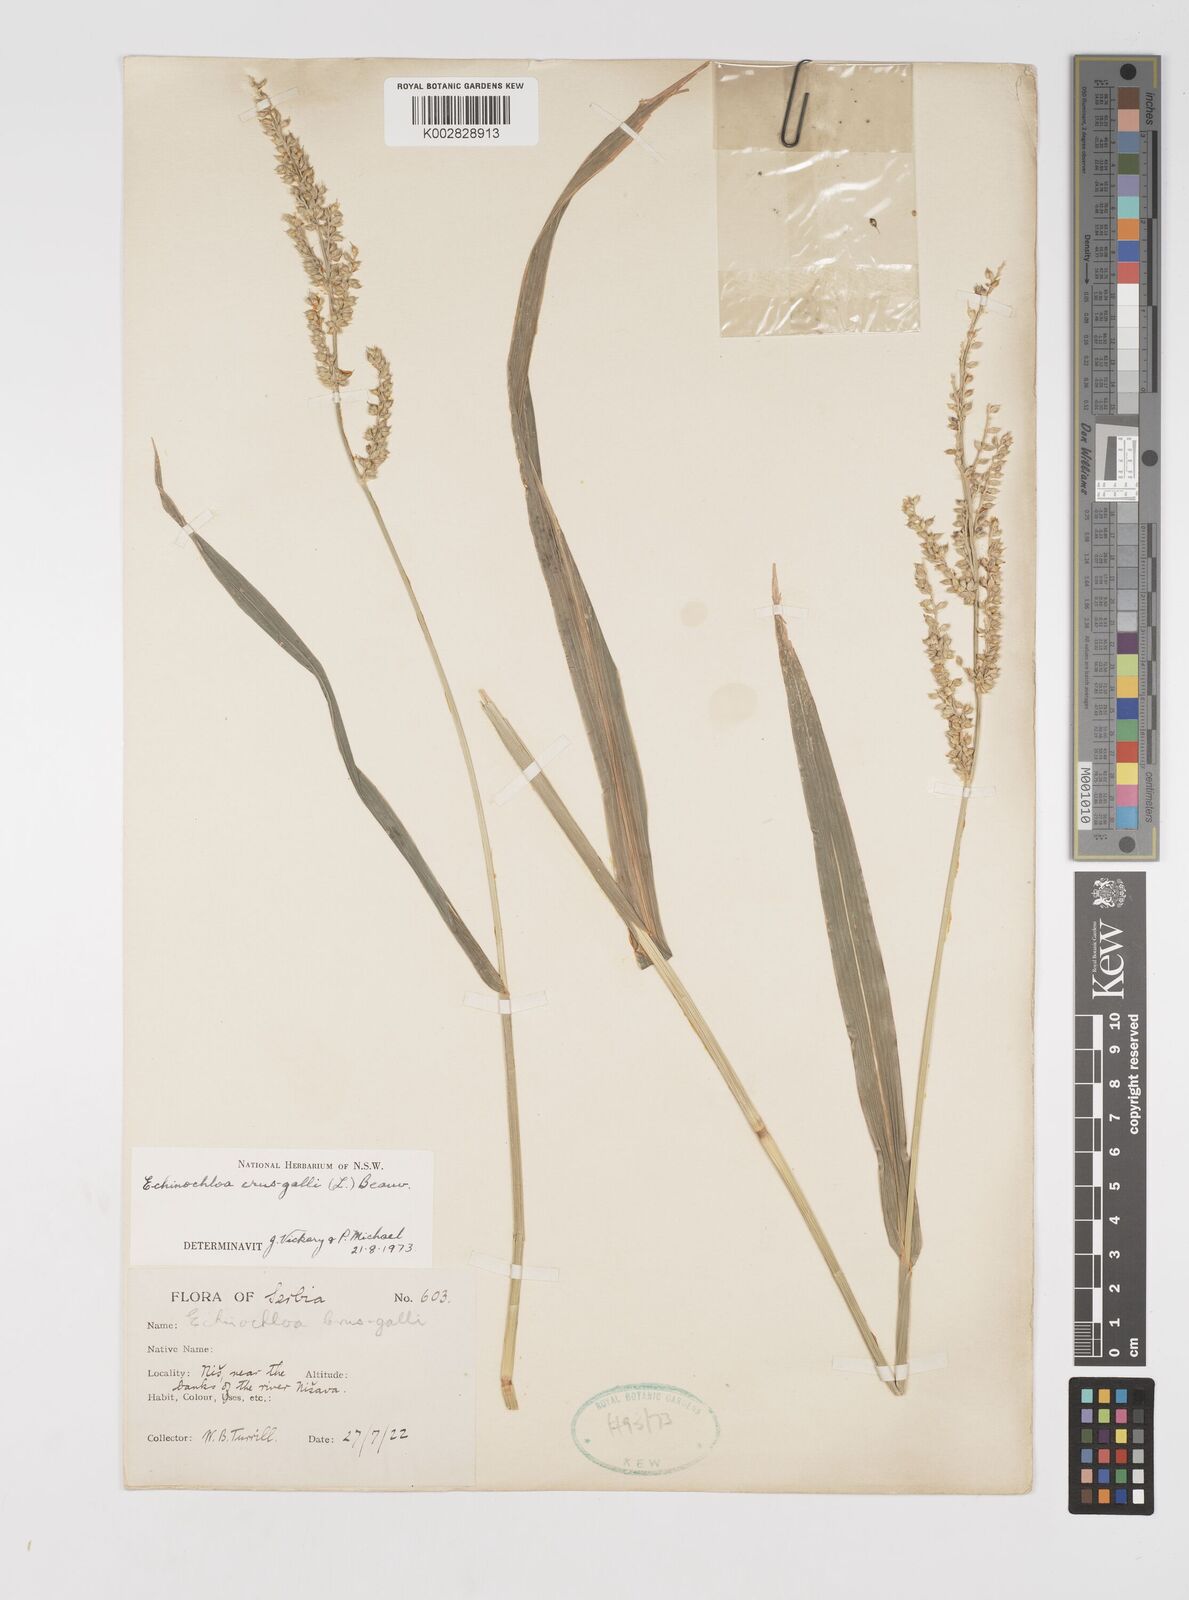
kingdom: Plantae
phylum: Tracheophyta
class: Liliopsida
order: Poales
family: Poaceae
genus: Echinochloa
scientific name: Echinochloa crus-galli
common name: Cockspur
